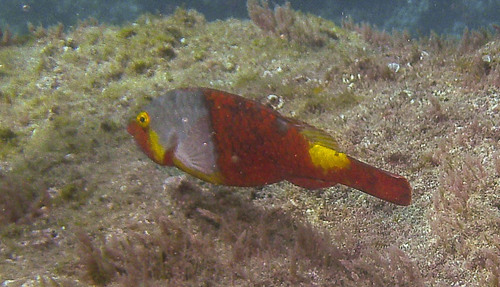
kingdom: Animalia
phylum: Chordata
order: Perciformes
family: Scaridae
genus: Sparisoma
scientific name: Sparisoma cretense
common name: Parrotfish
